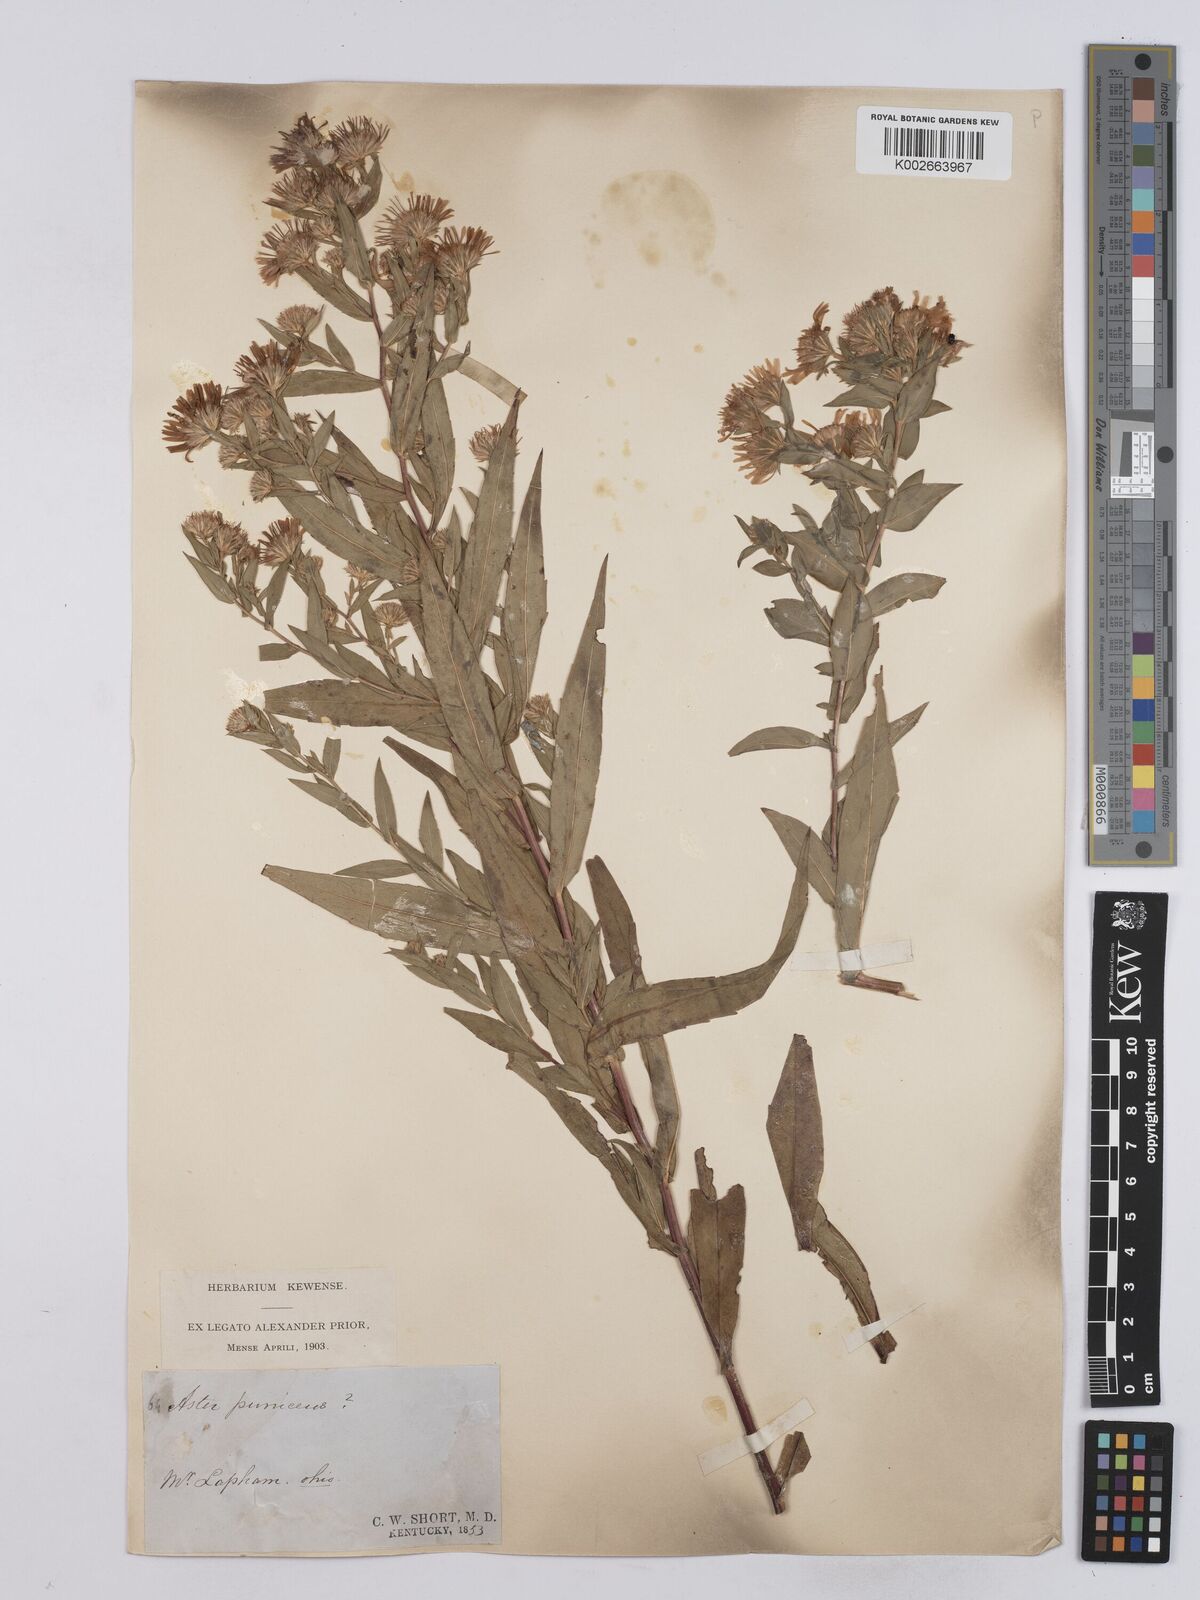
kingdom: Plantae
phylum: Tracheophyta
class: Magnoliopsida
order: Asterales
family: Asteraceae
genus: Symphyotrichum
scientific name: Symphyotrichum puniceum
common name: Bog aster
